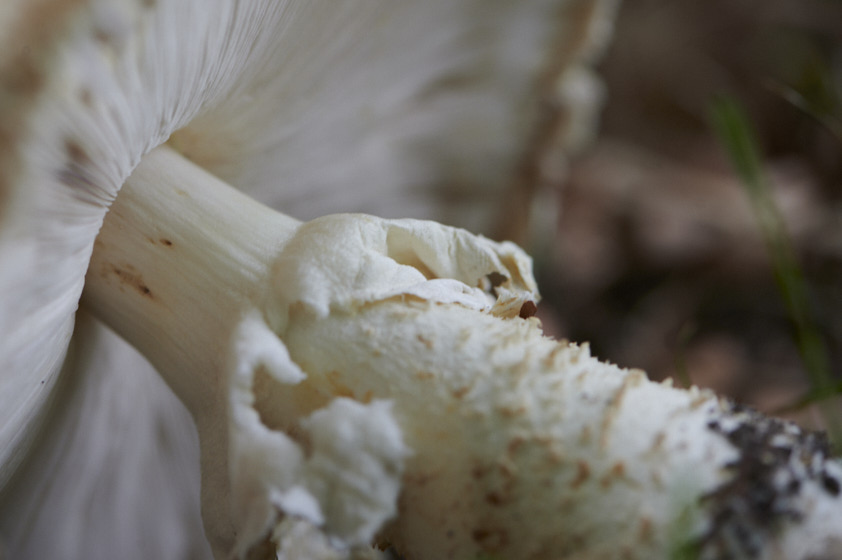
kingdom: Fungi
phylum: Basidiomycota
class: Agaricomycetes
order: Agaricales
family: Agaricaceae
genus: Agaricus
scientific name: Agaricus augustus
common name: prægtig champignon
